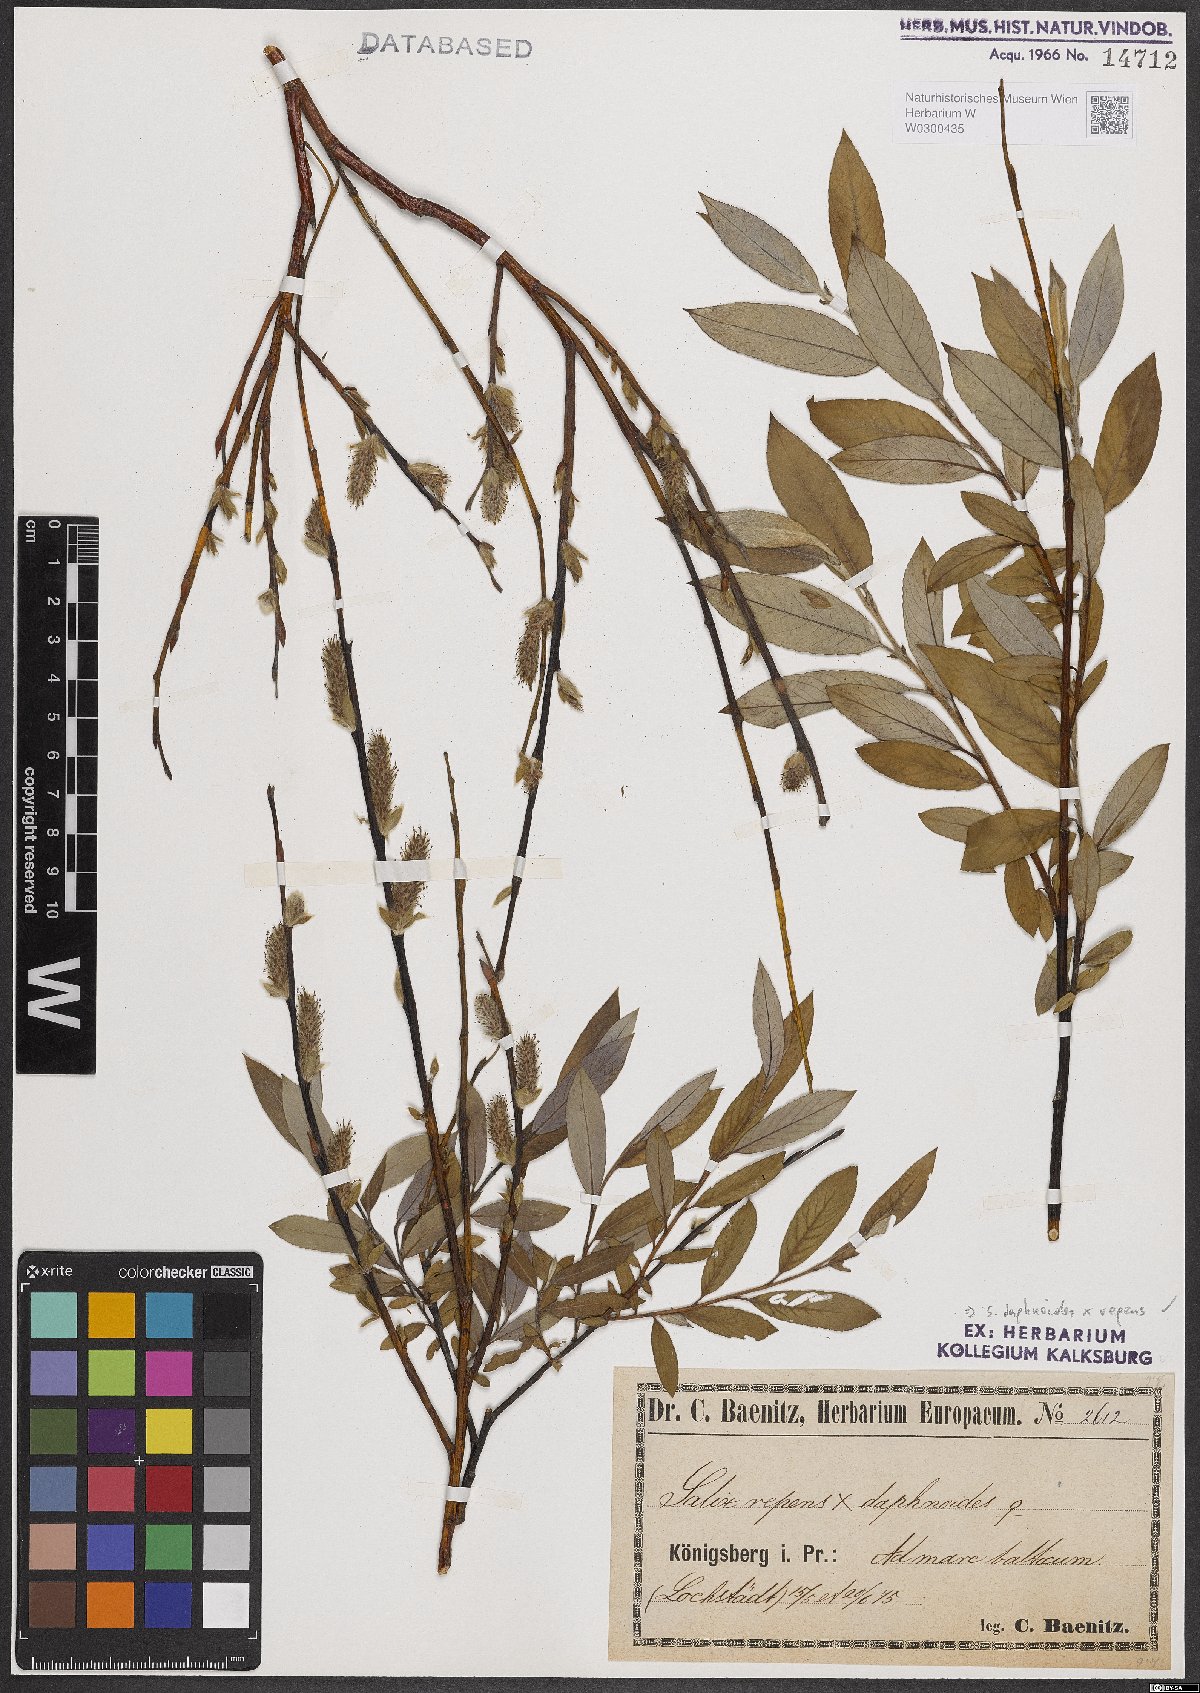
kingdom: Plantae
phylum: Tracheophyta
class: Magnoliopsida
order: Malpighiales
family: Salicaceae
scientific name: Salicaceae
